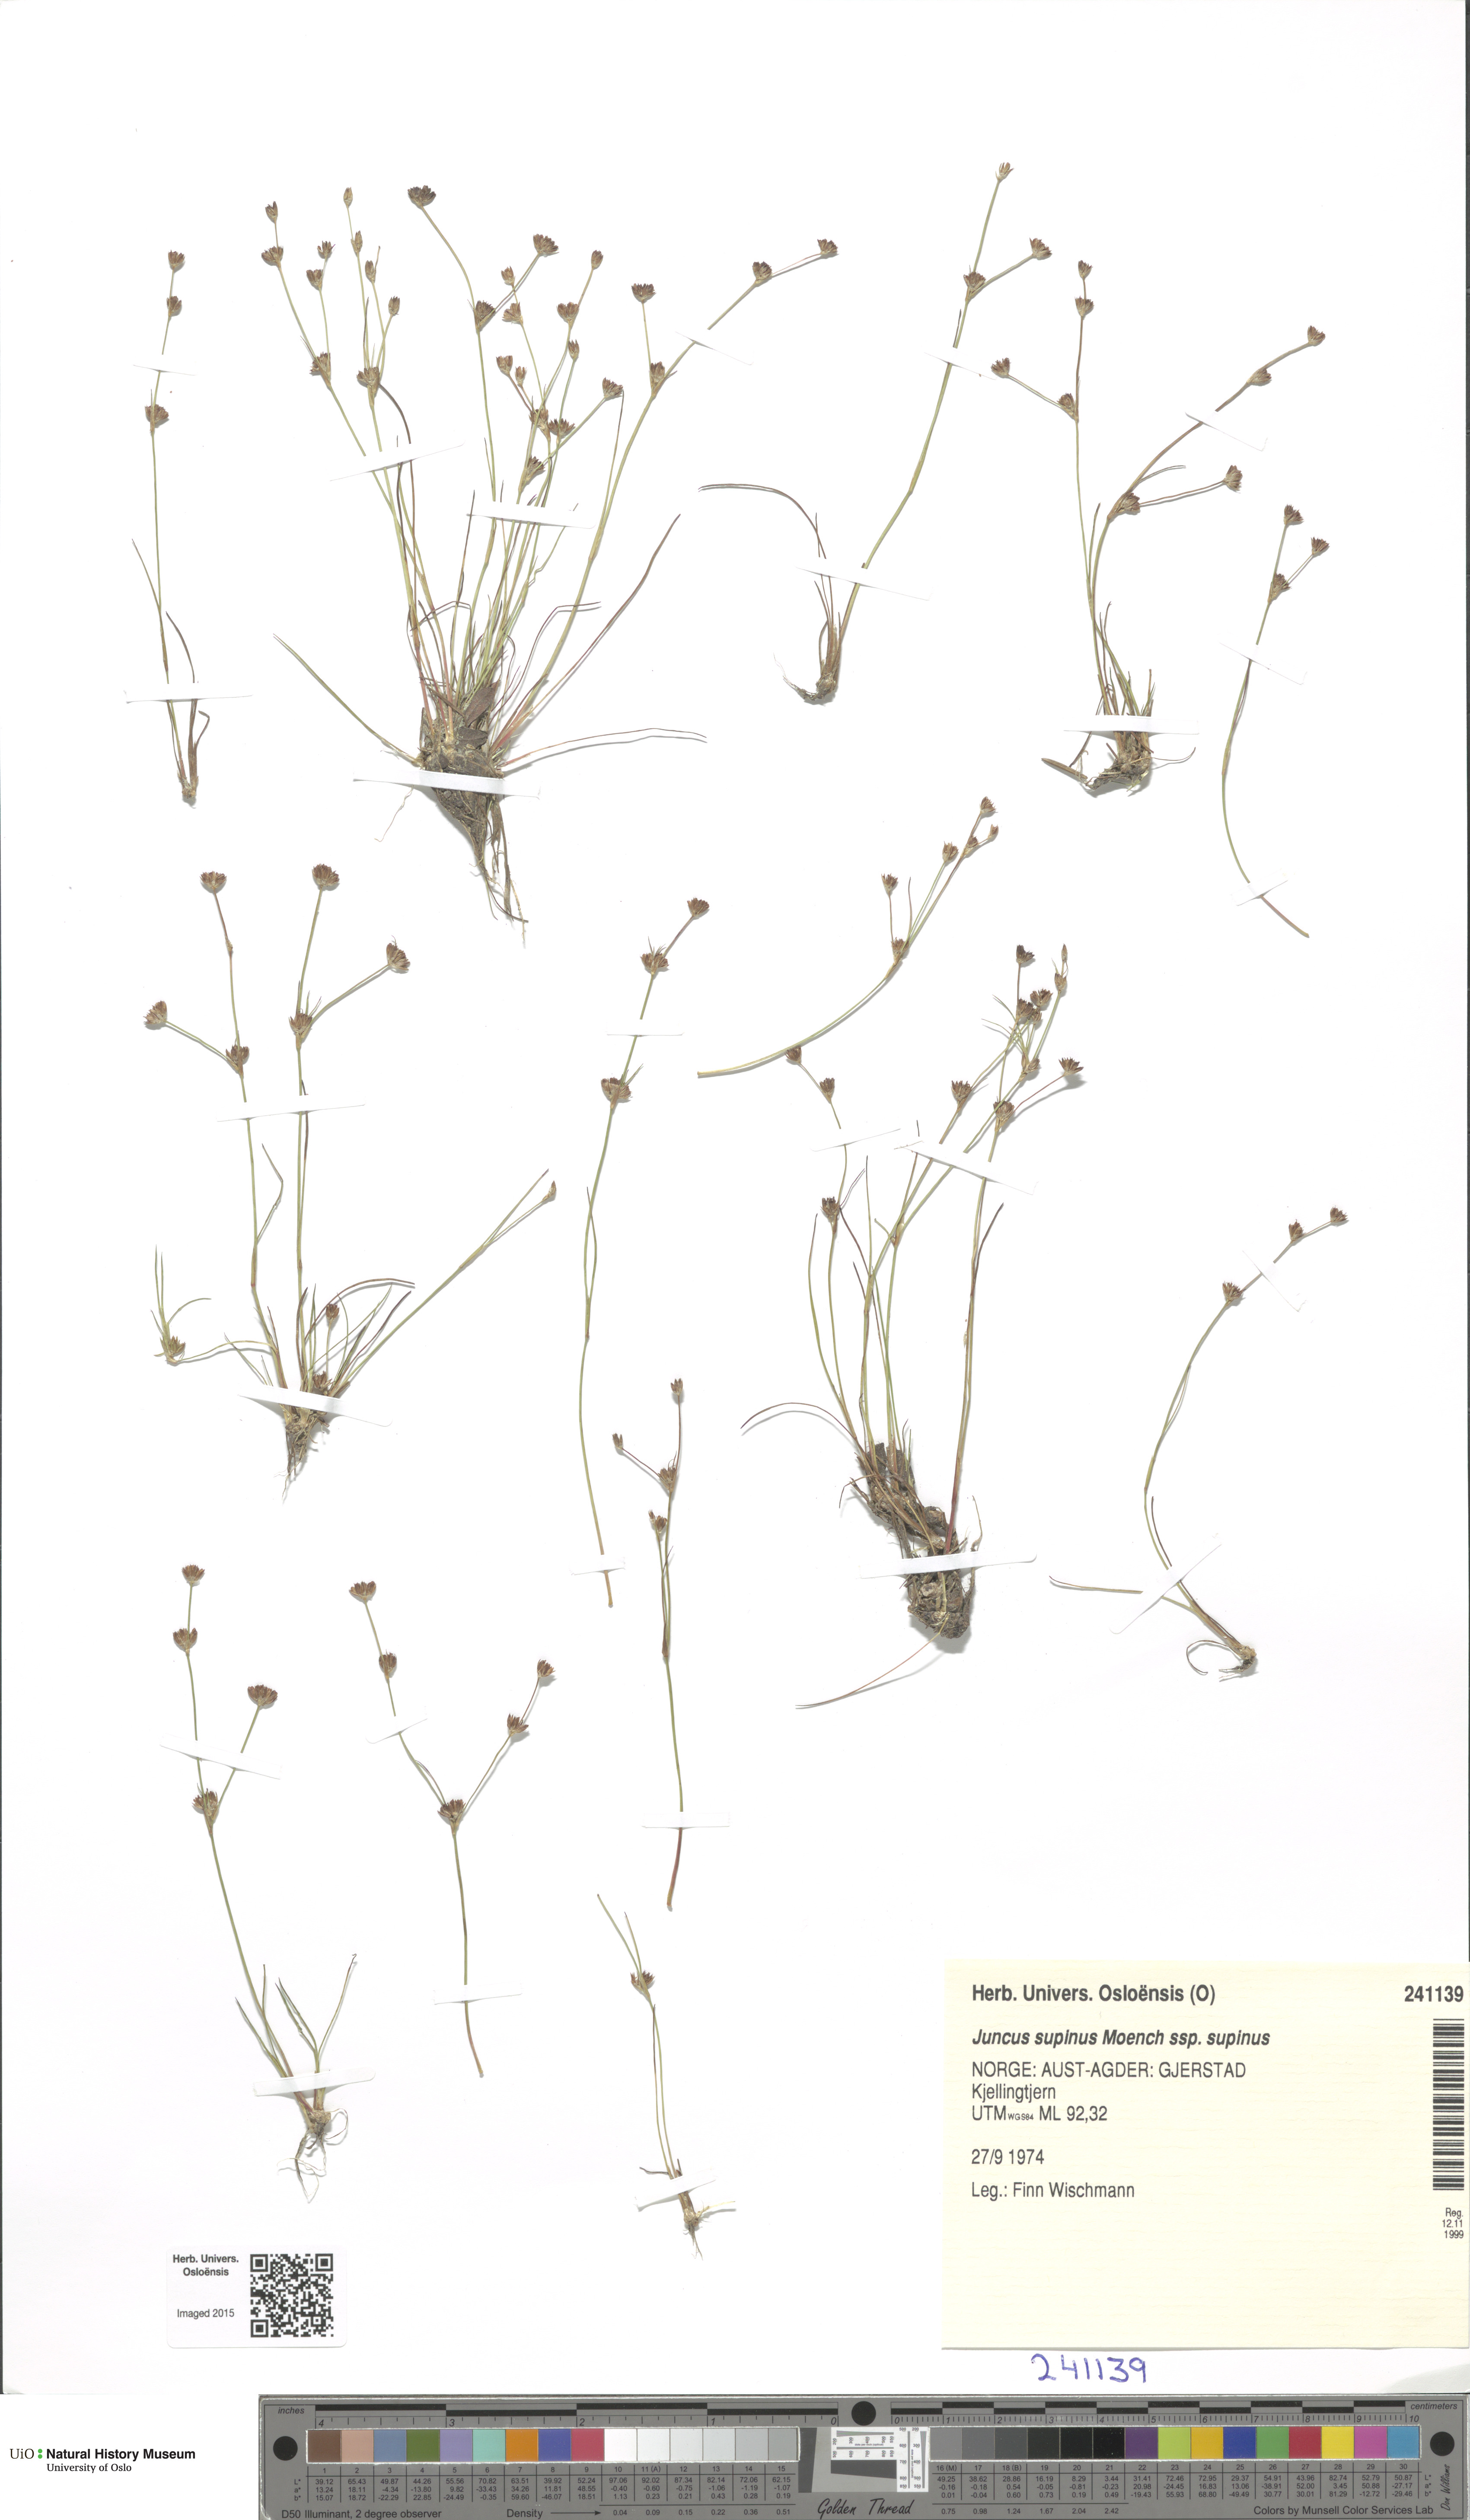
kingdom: Plantae
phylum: Tracheophyta
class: Liliopsida
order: Poales
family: Juncaceae
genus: Juncus
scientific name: Juncus bulbosus
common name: Bulbous rush
